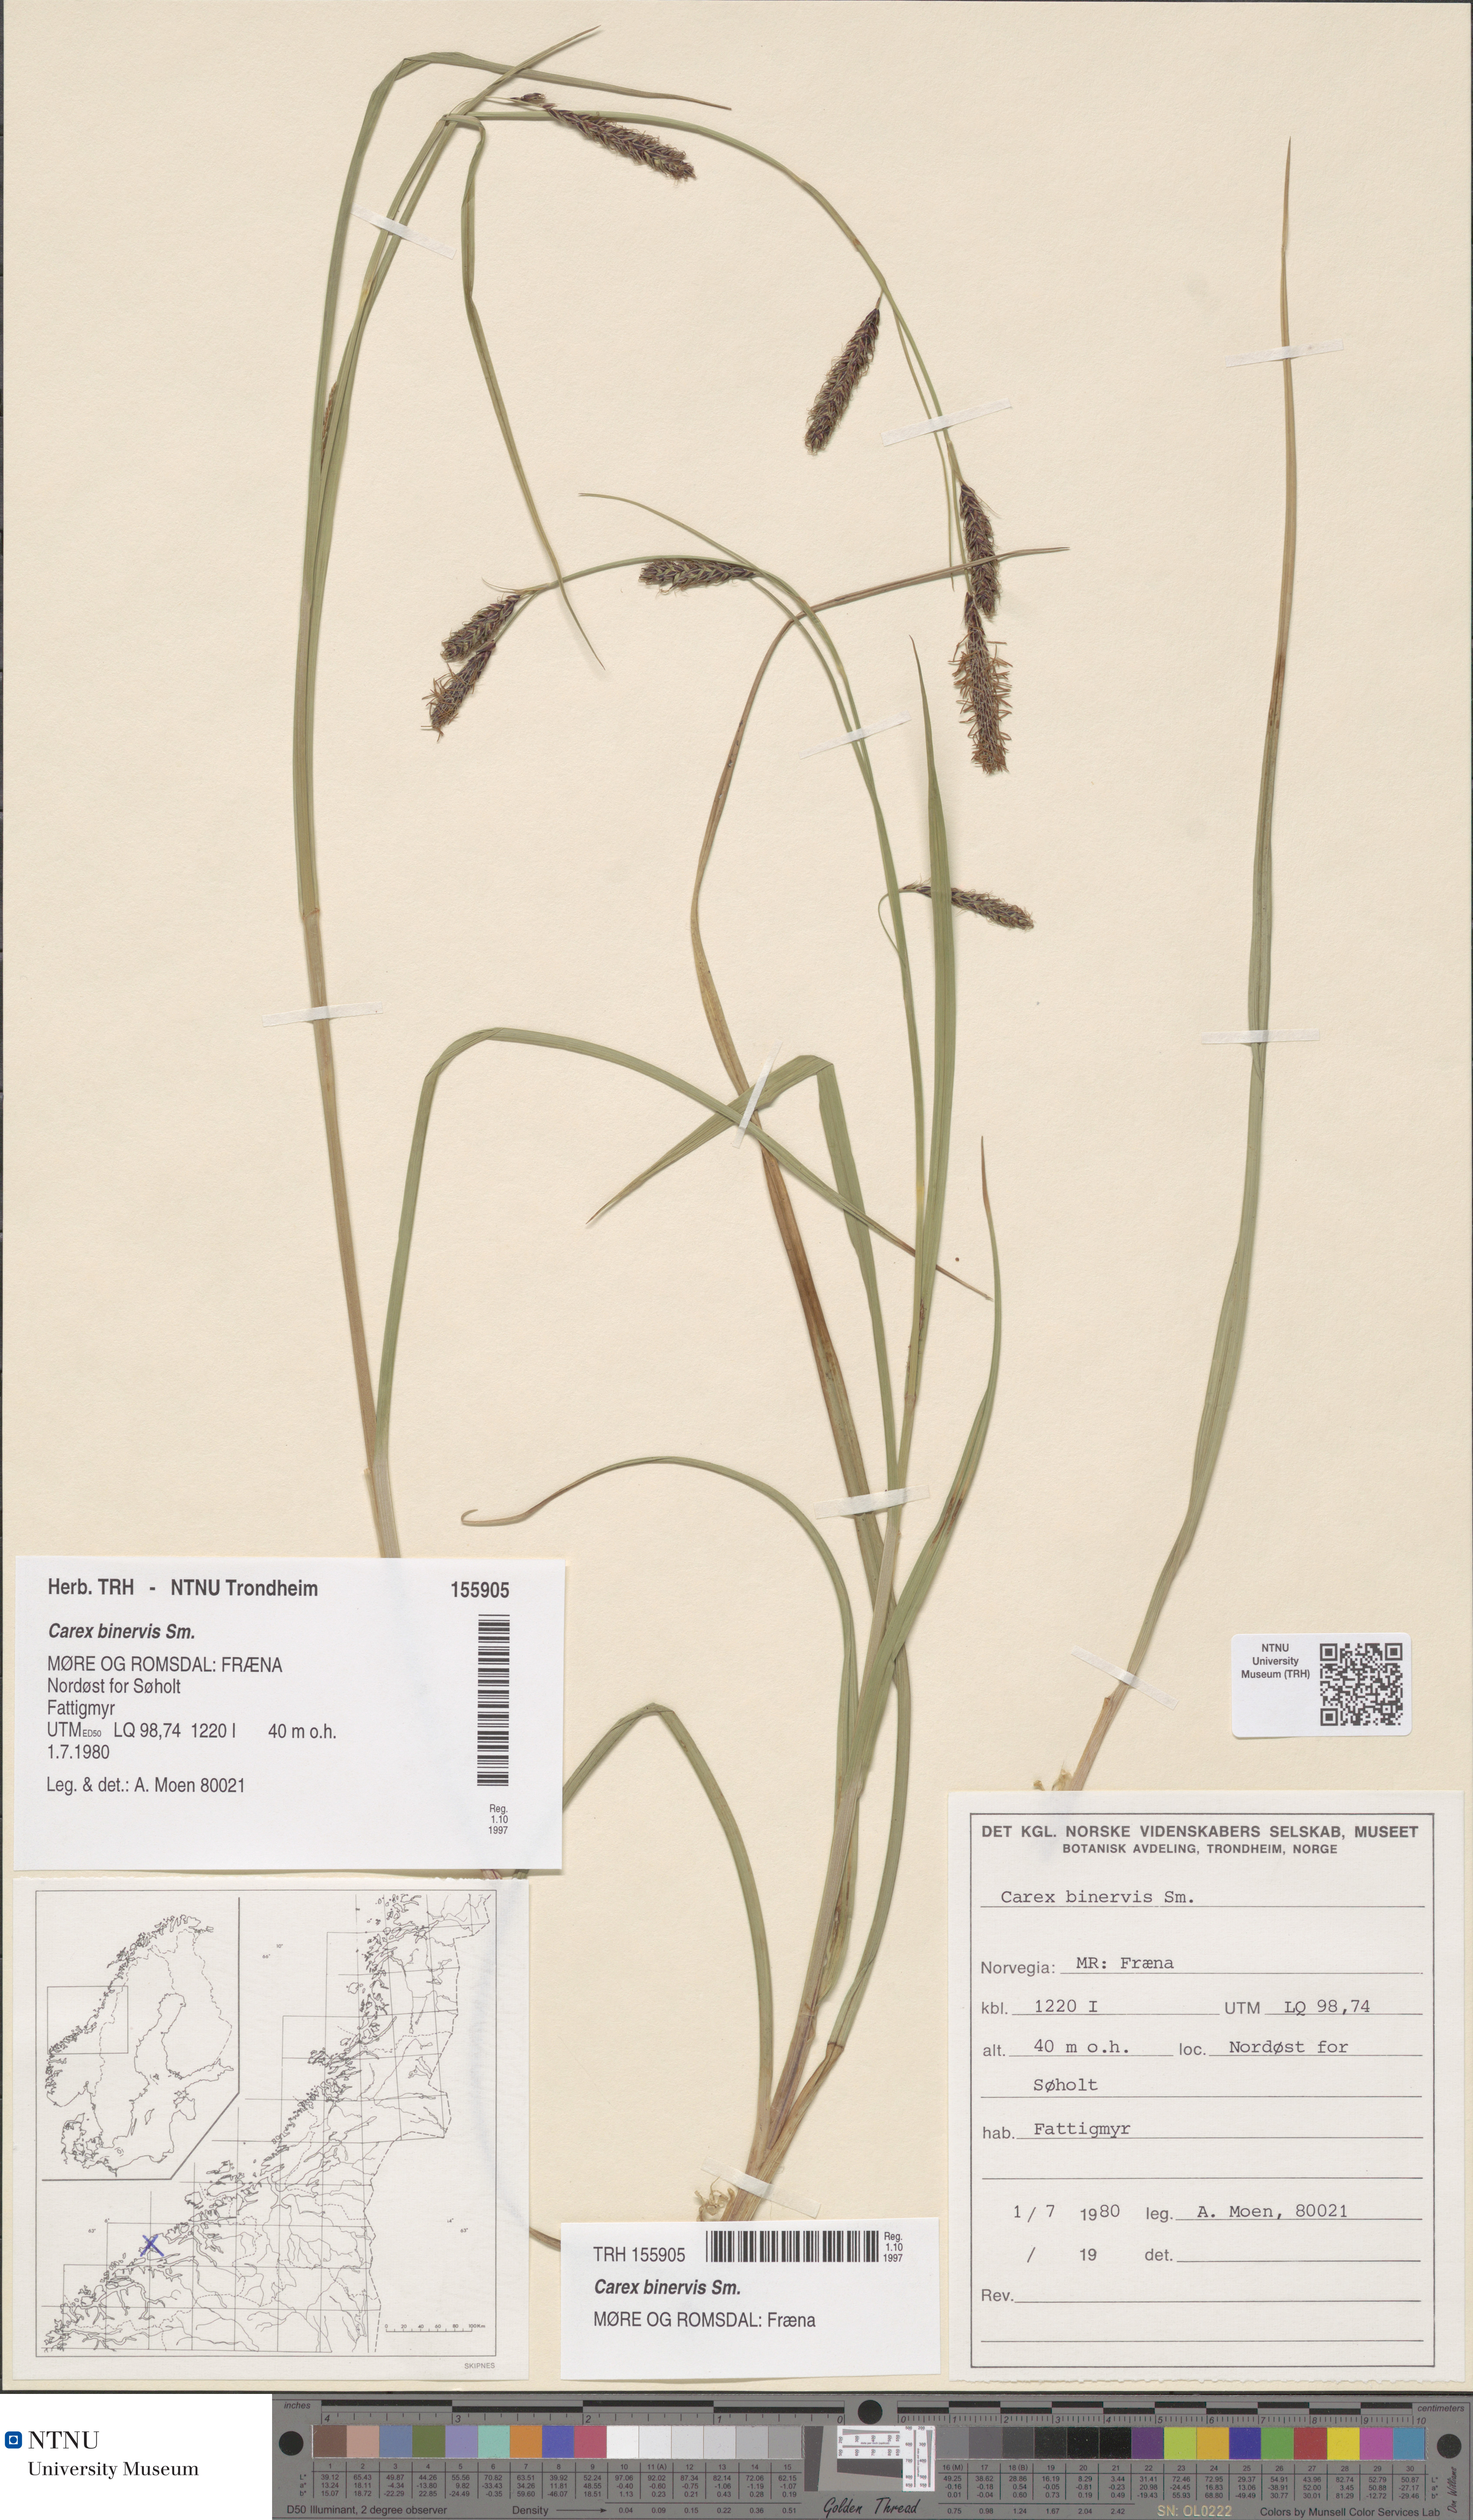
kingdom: Plantae
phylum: Tracheophyta
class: Liliopsida
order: Poales
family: Cyperaceae
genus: Carex
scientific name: Carex binervis
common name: Green-ribbed sedge
